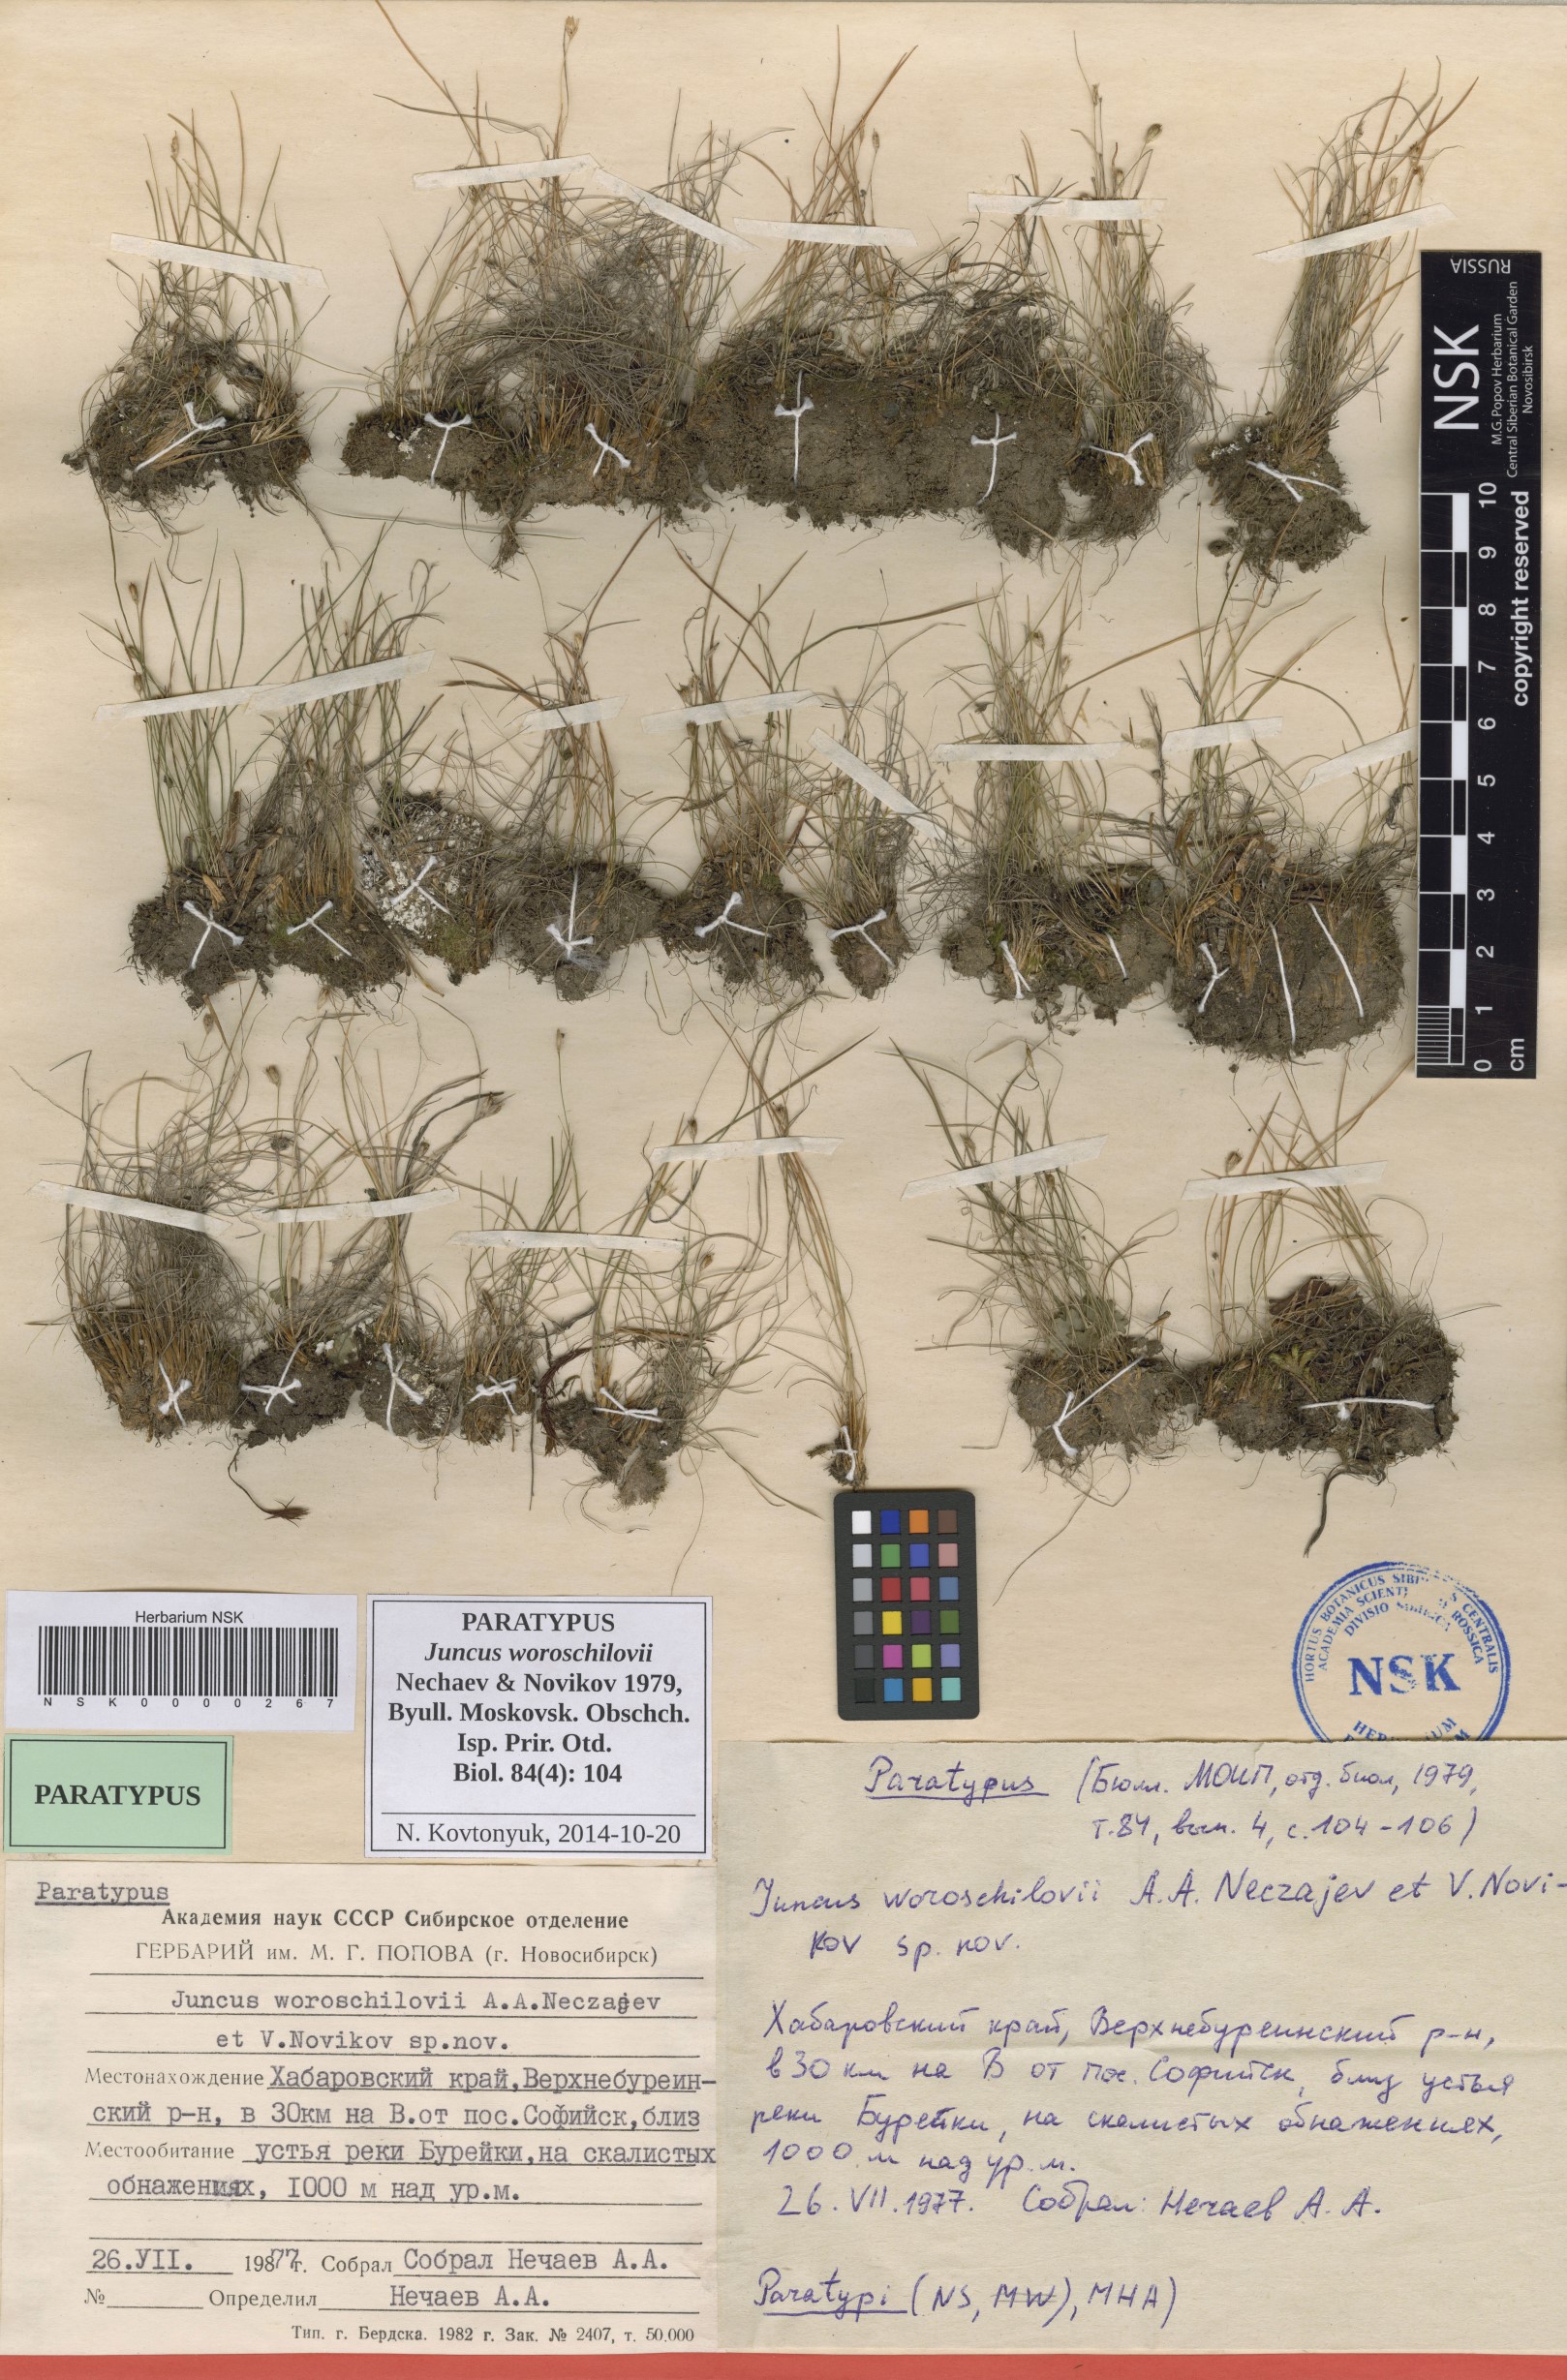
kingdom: Plantae
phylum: Tracheophyta
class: Liliopsida
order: Poales
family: Juncaceae
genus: Juncus
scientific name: Juncus potaninii
